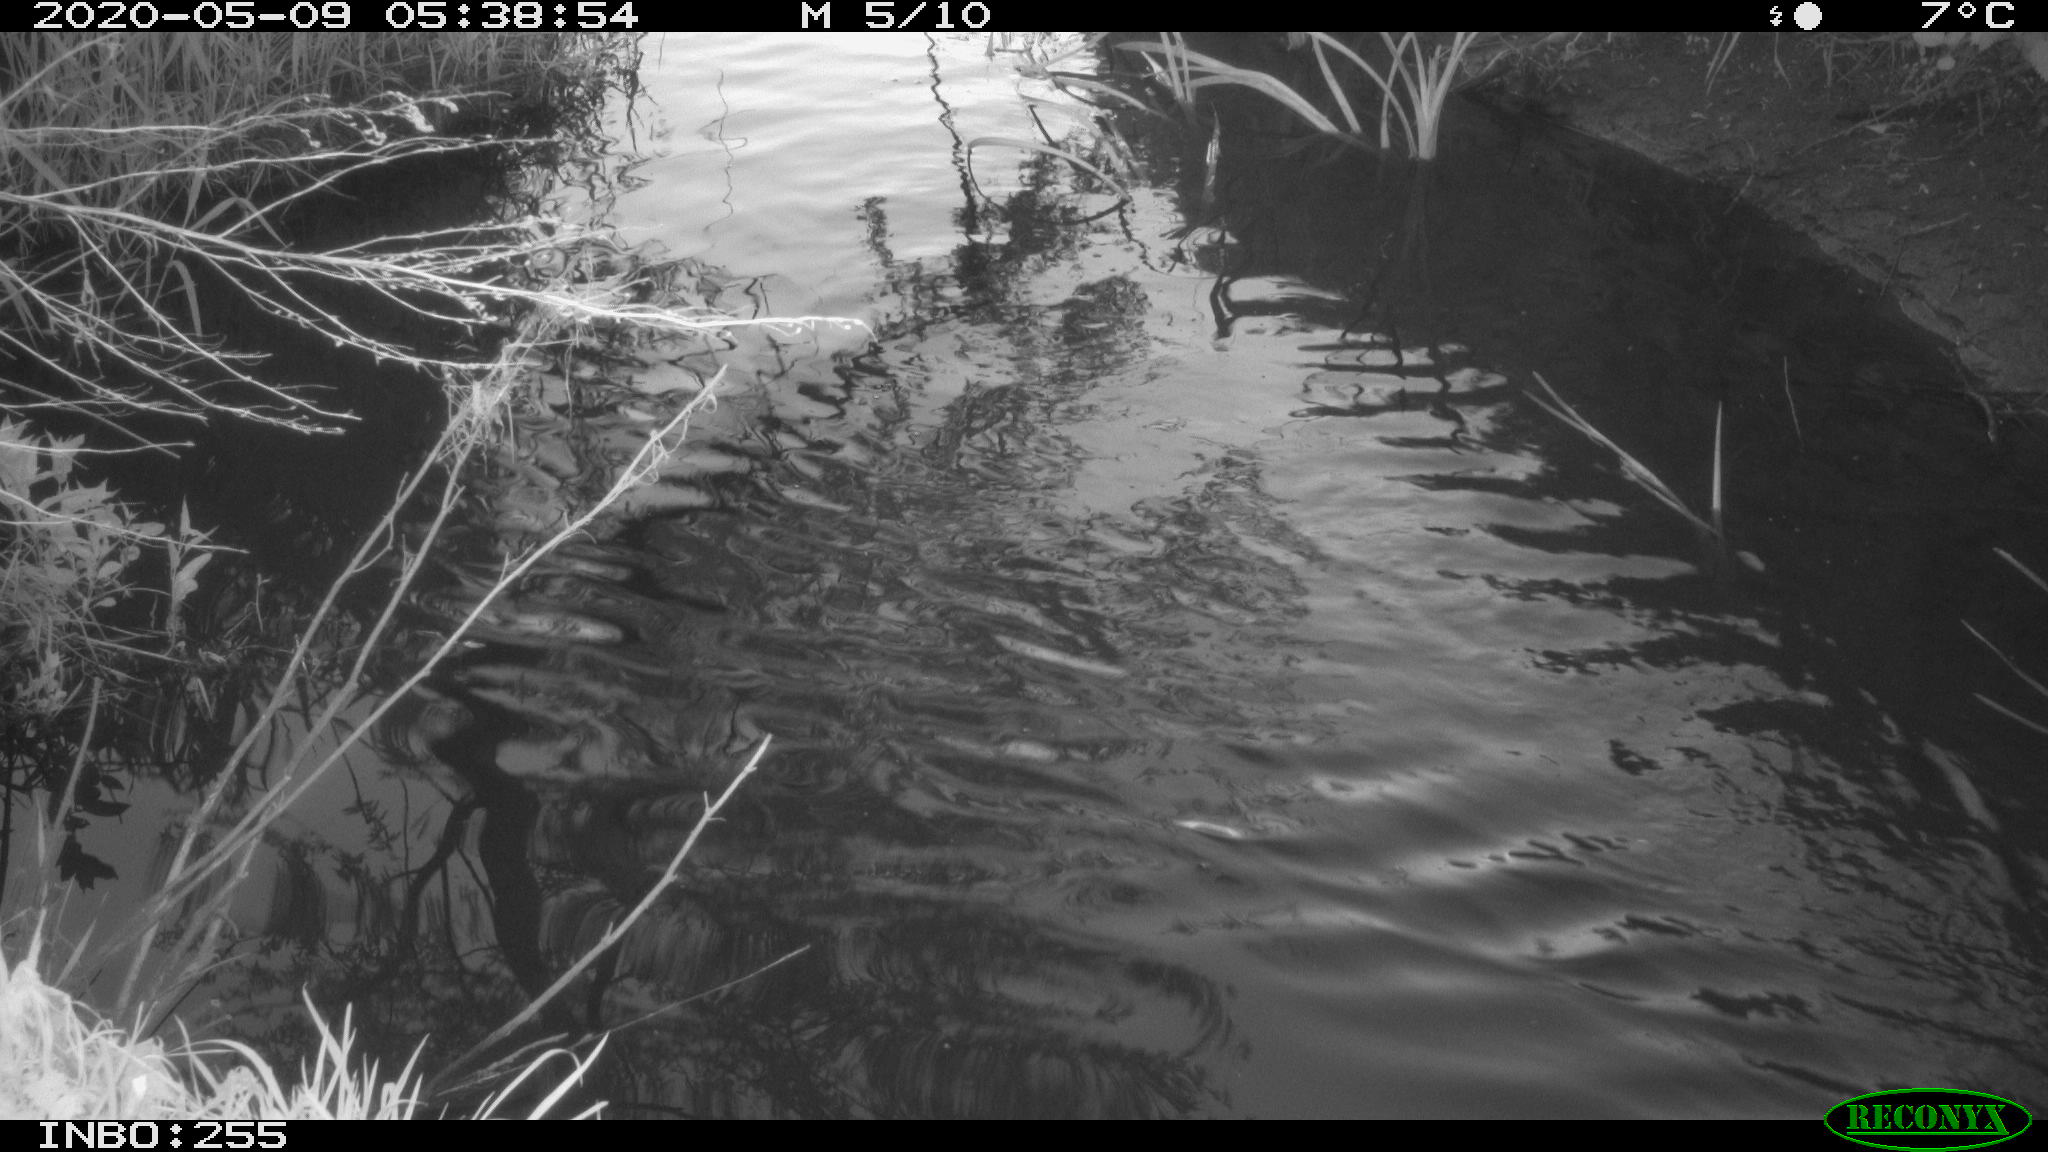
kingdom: Animalia
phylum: Chordata
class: Aves
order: Anseriformes
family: Anatidae
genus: Anas
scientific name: Anas platyrhynchos
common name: Mallard
